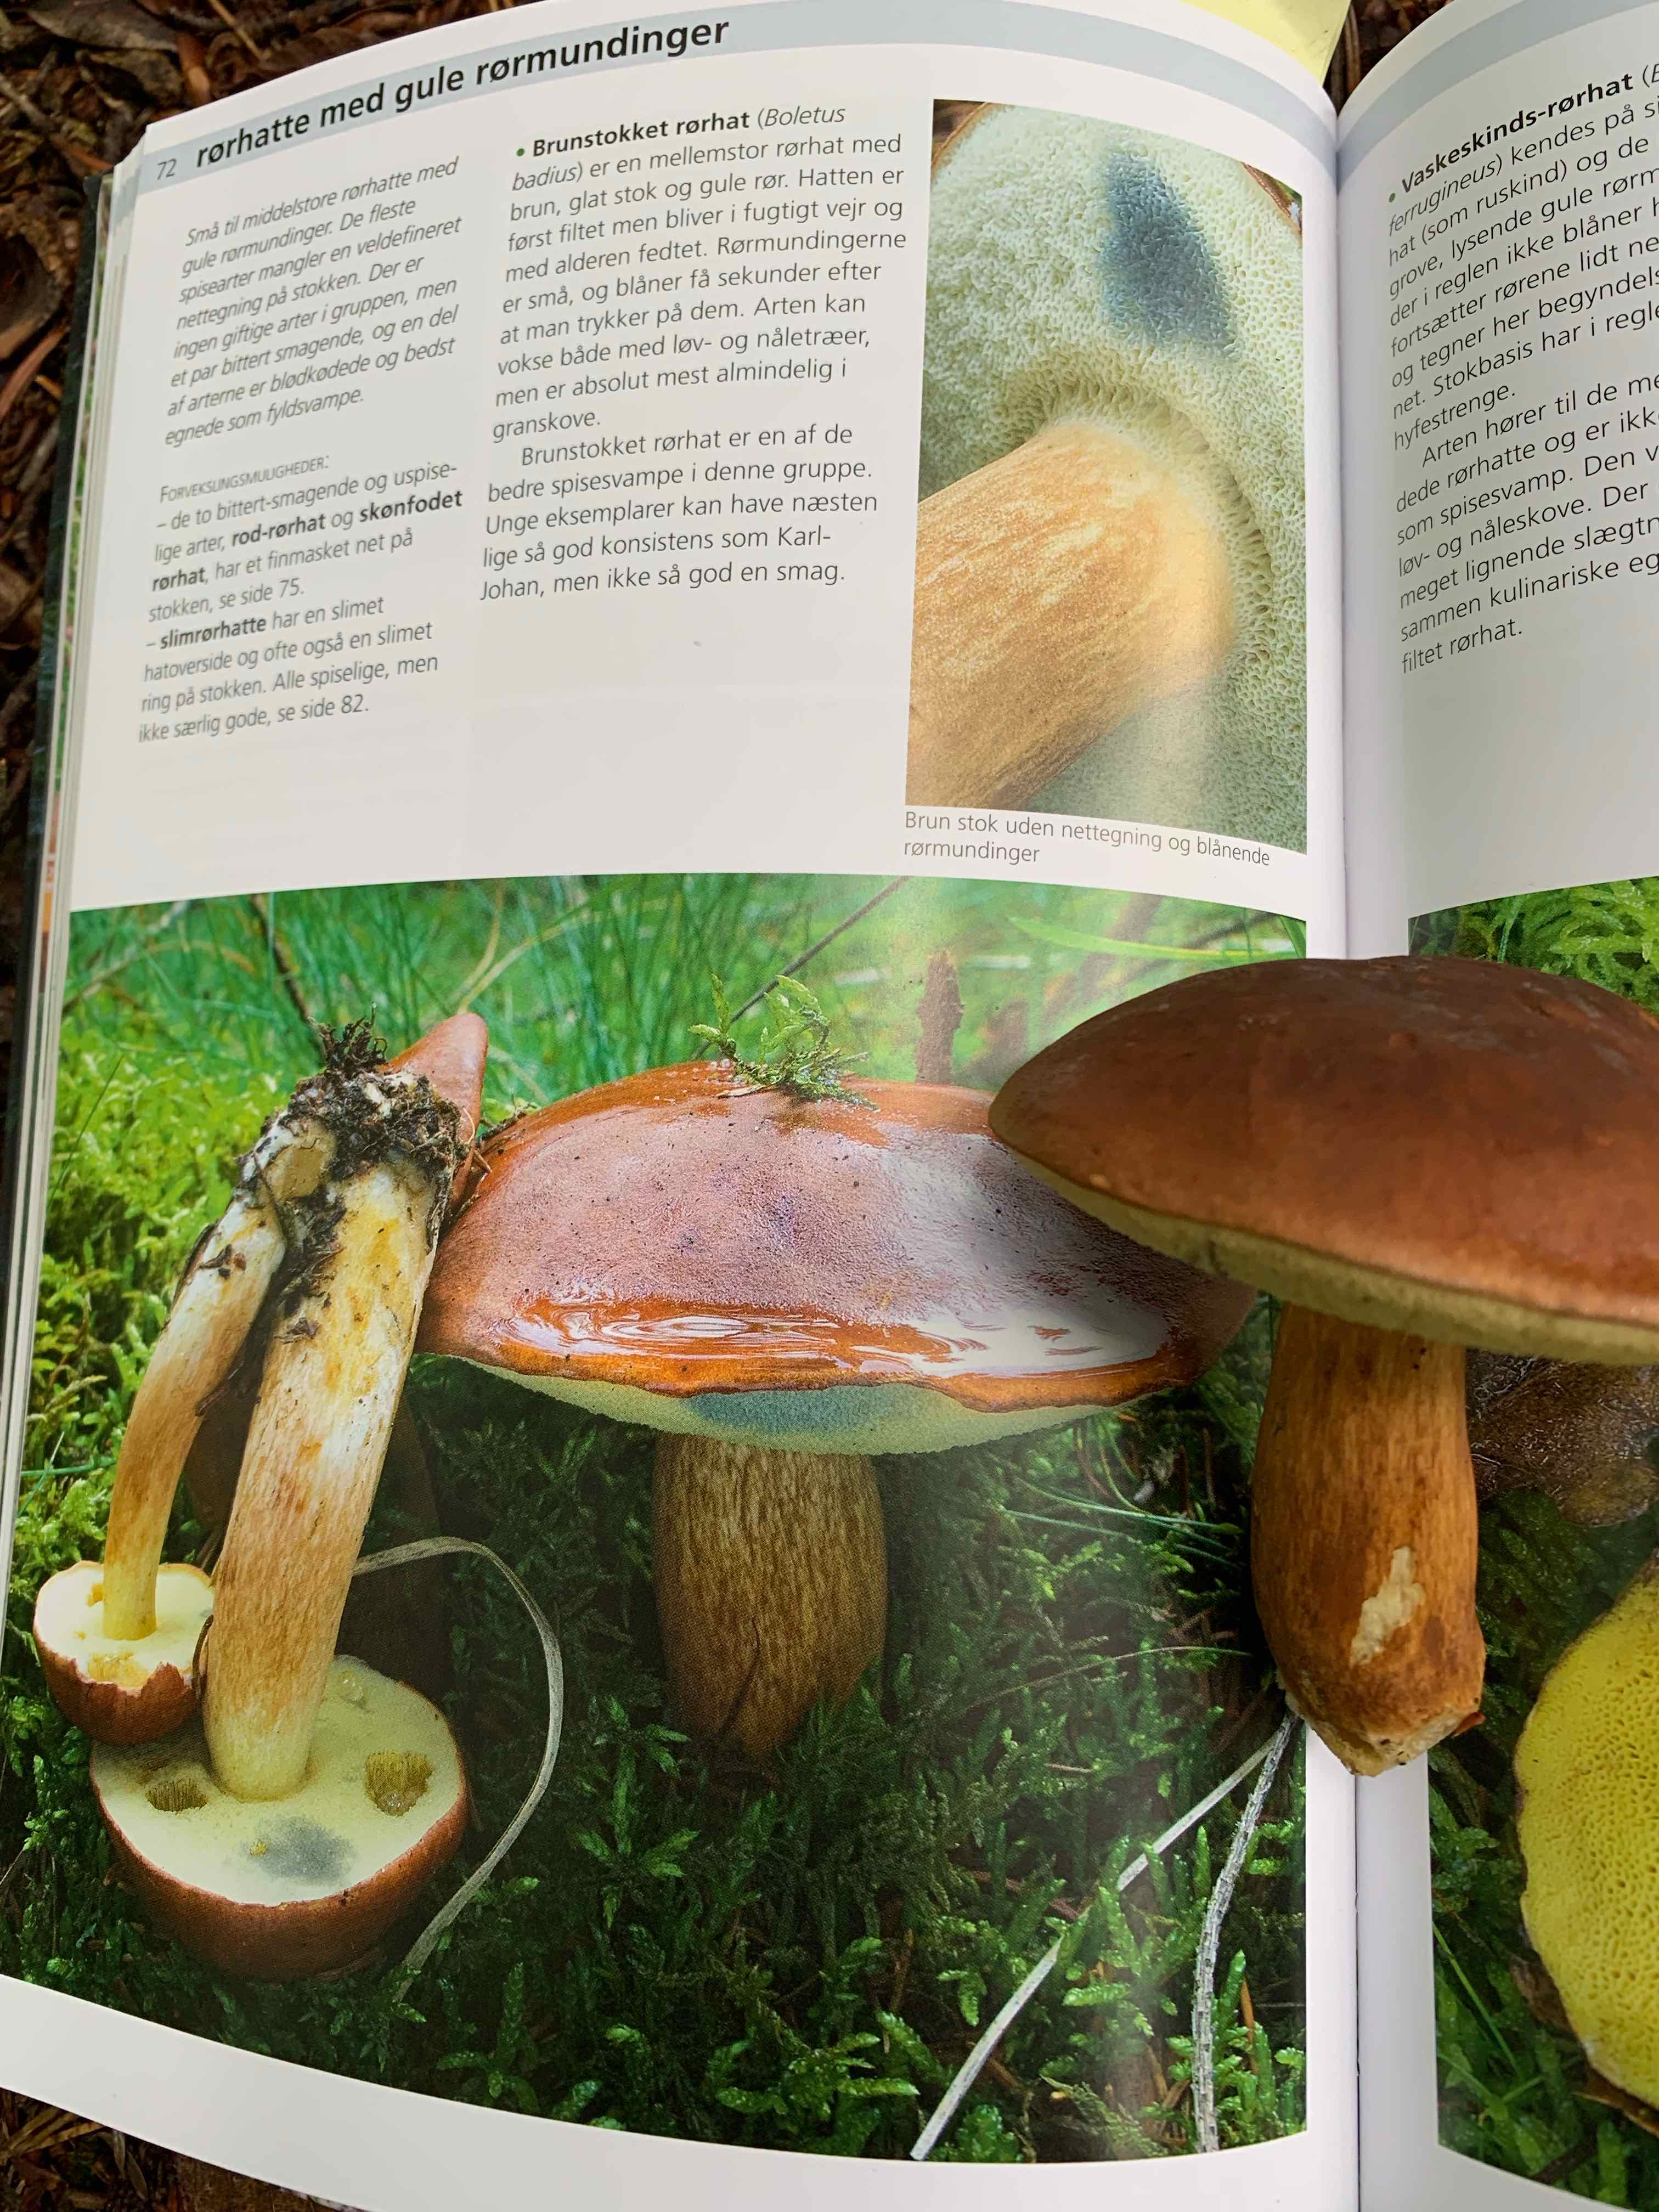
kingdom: Fungi
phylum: Basidiomycota
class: Agaricomycetes
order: Boletales
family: Boletaceae
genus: Imleria
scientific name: Imleria badia
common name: brunstokket rørhat
